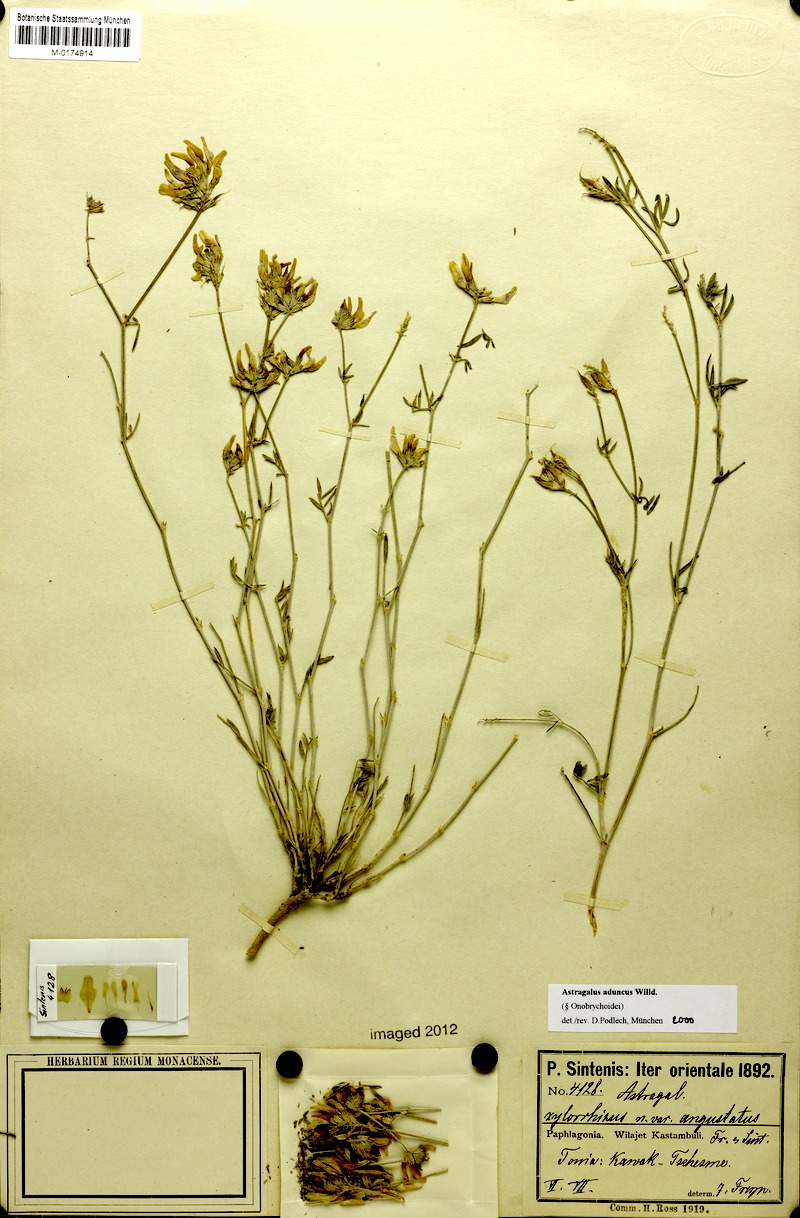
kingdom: Plantae
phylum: Tracheophyta
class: Magnoliopsida
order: Fabales
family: Fabaceae
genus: Astragalus
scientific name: Astragalus aduncus
